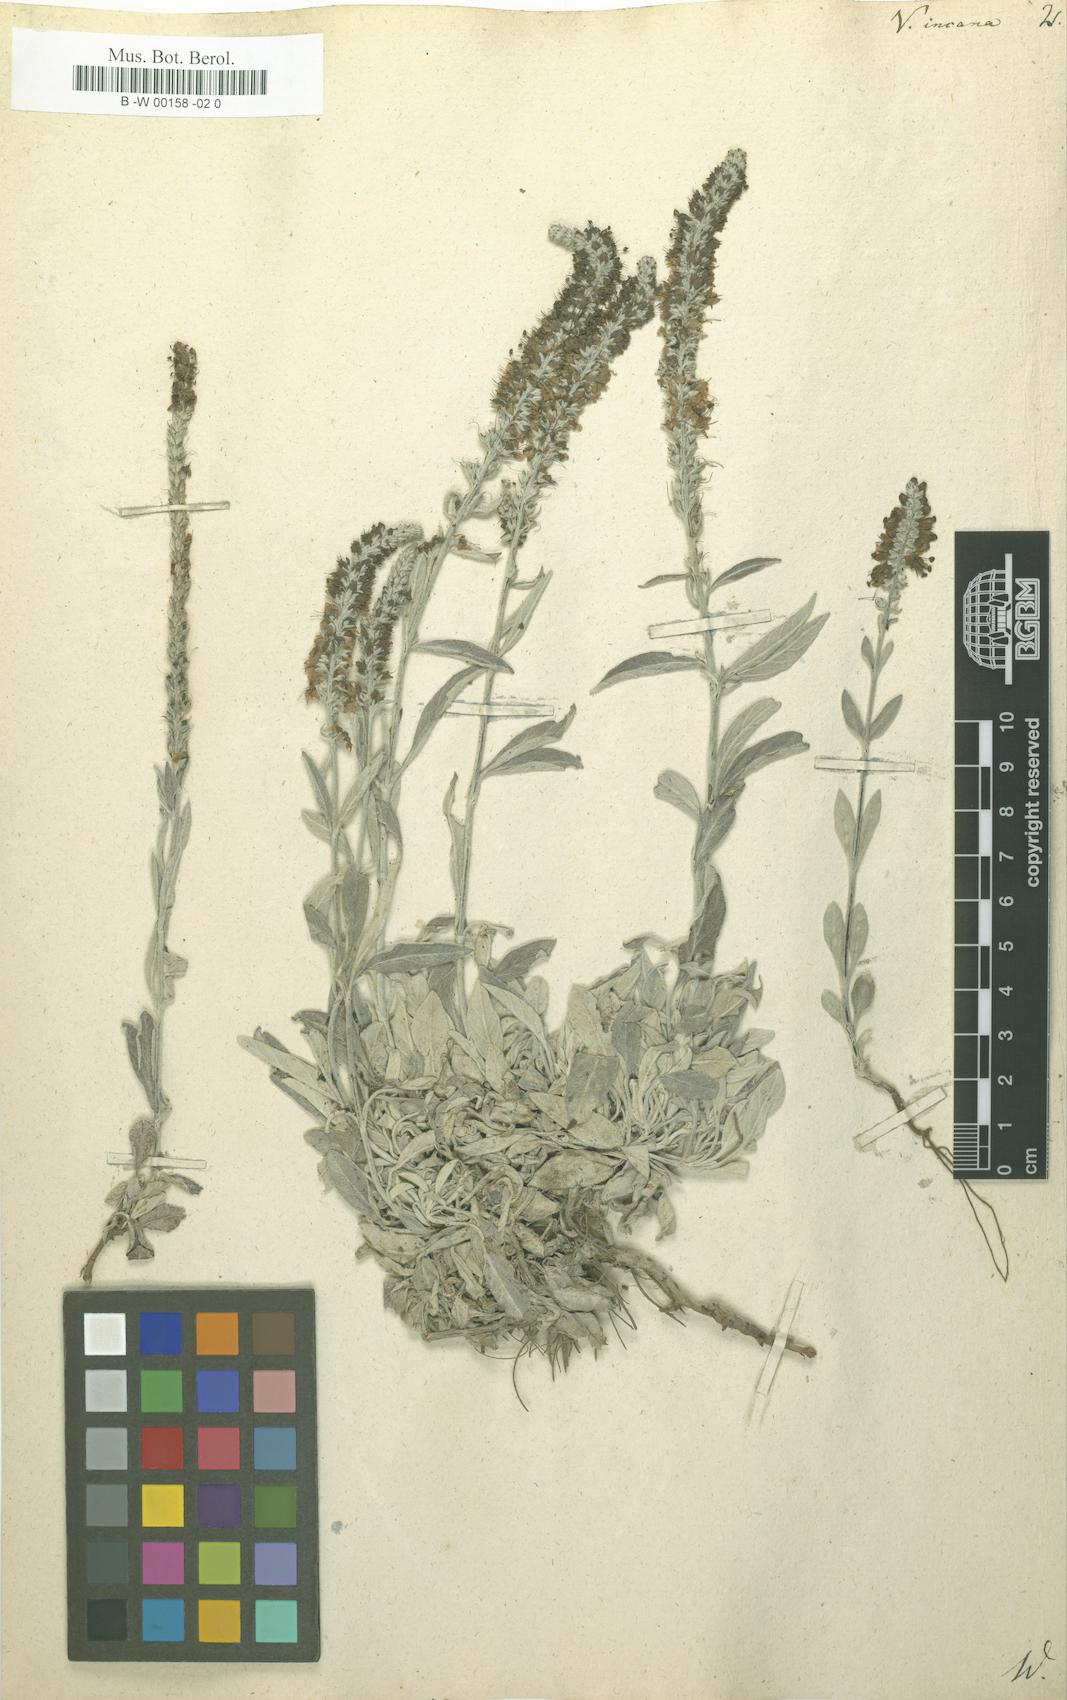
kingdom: Plantae
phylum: Tracheophyta
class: Magnoliopsida
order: Lamiales
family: Plantaginaceae
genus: Veronica
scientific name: Veronica incana
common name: Silver speedwell
